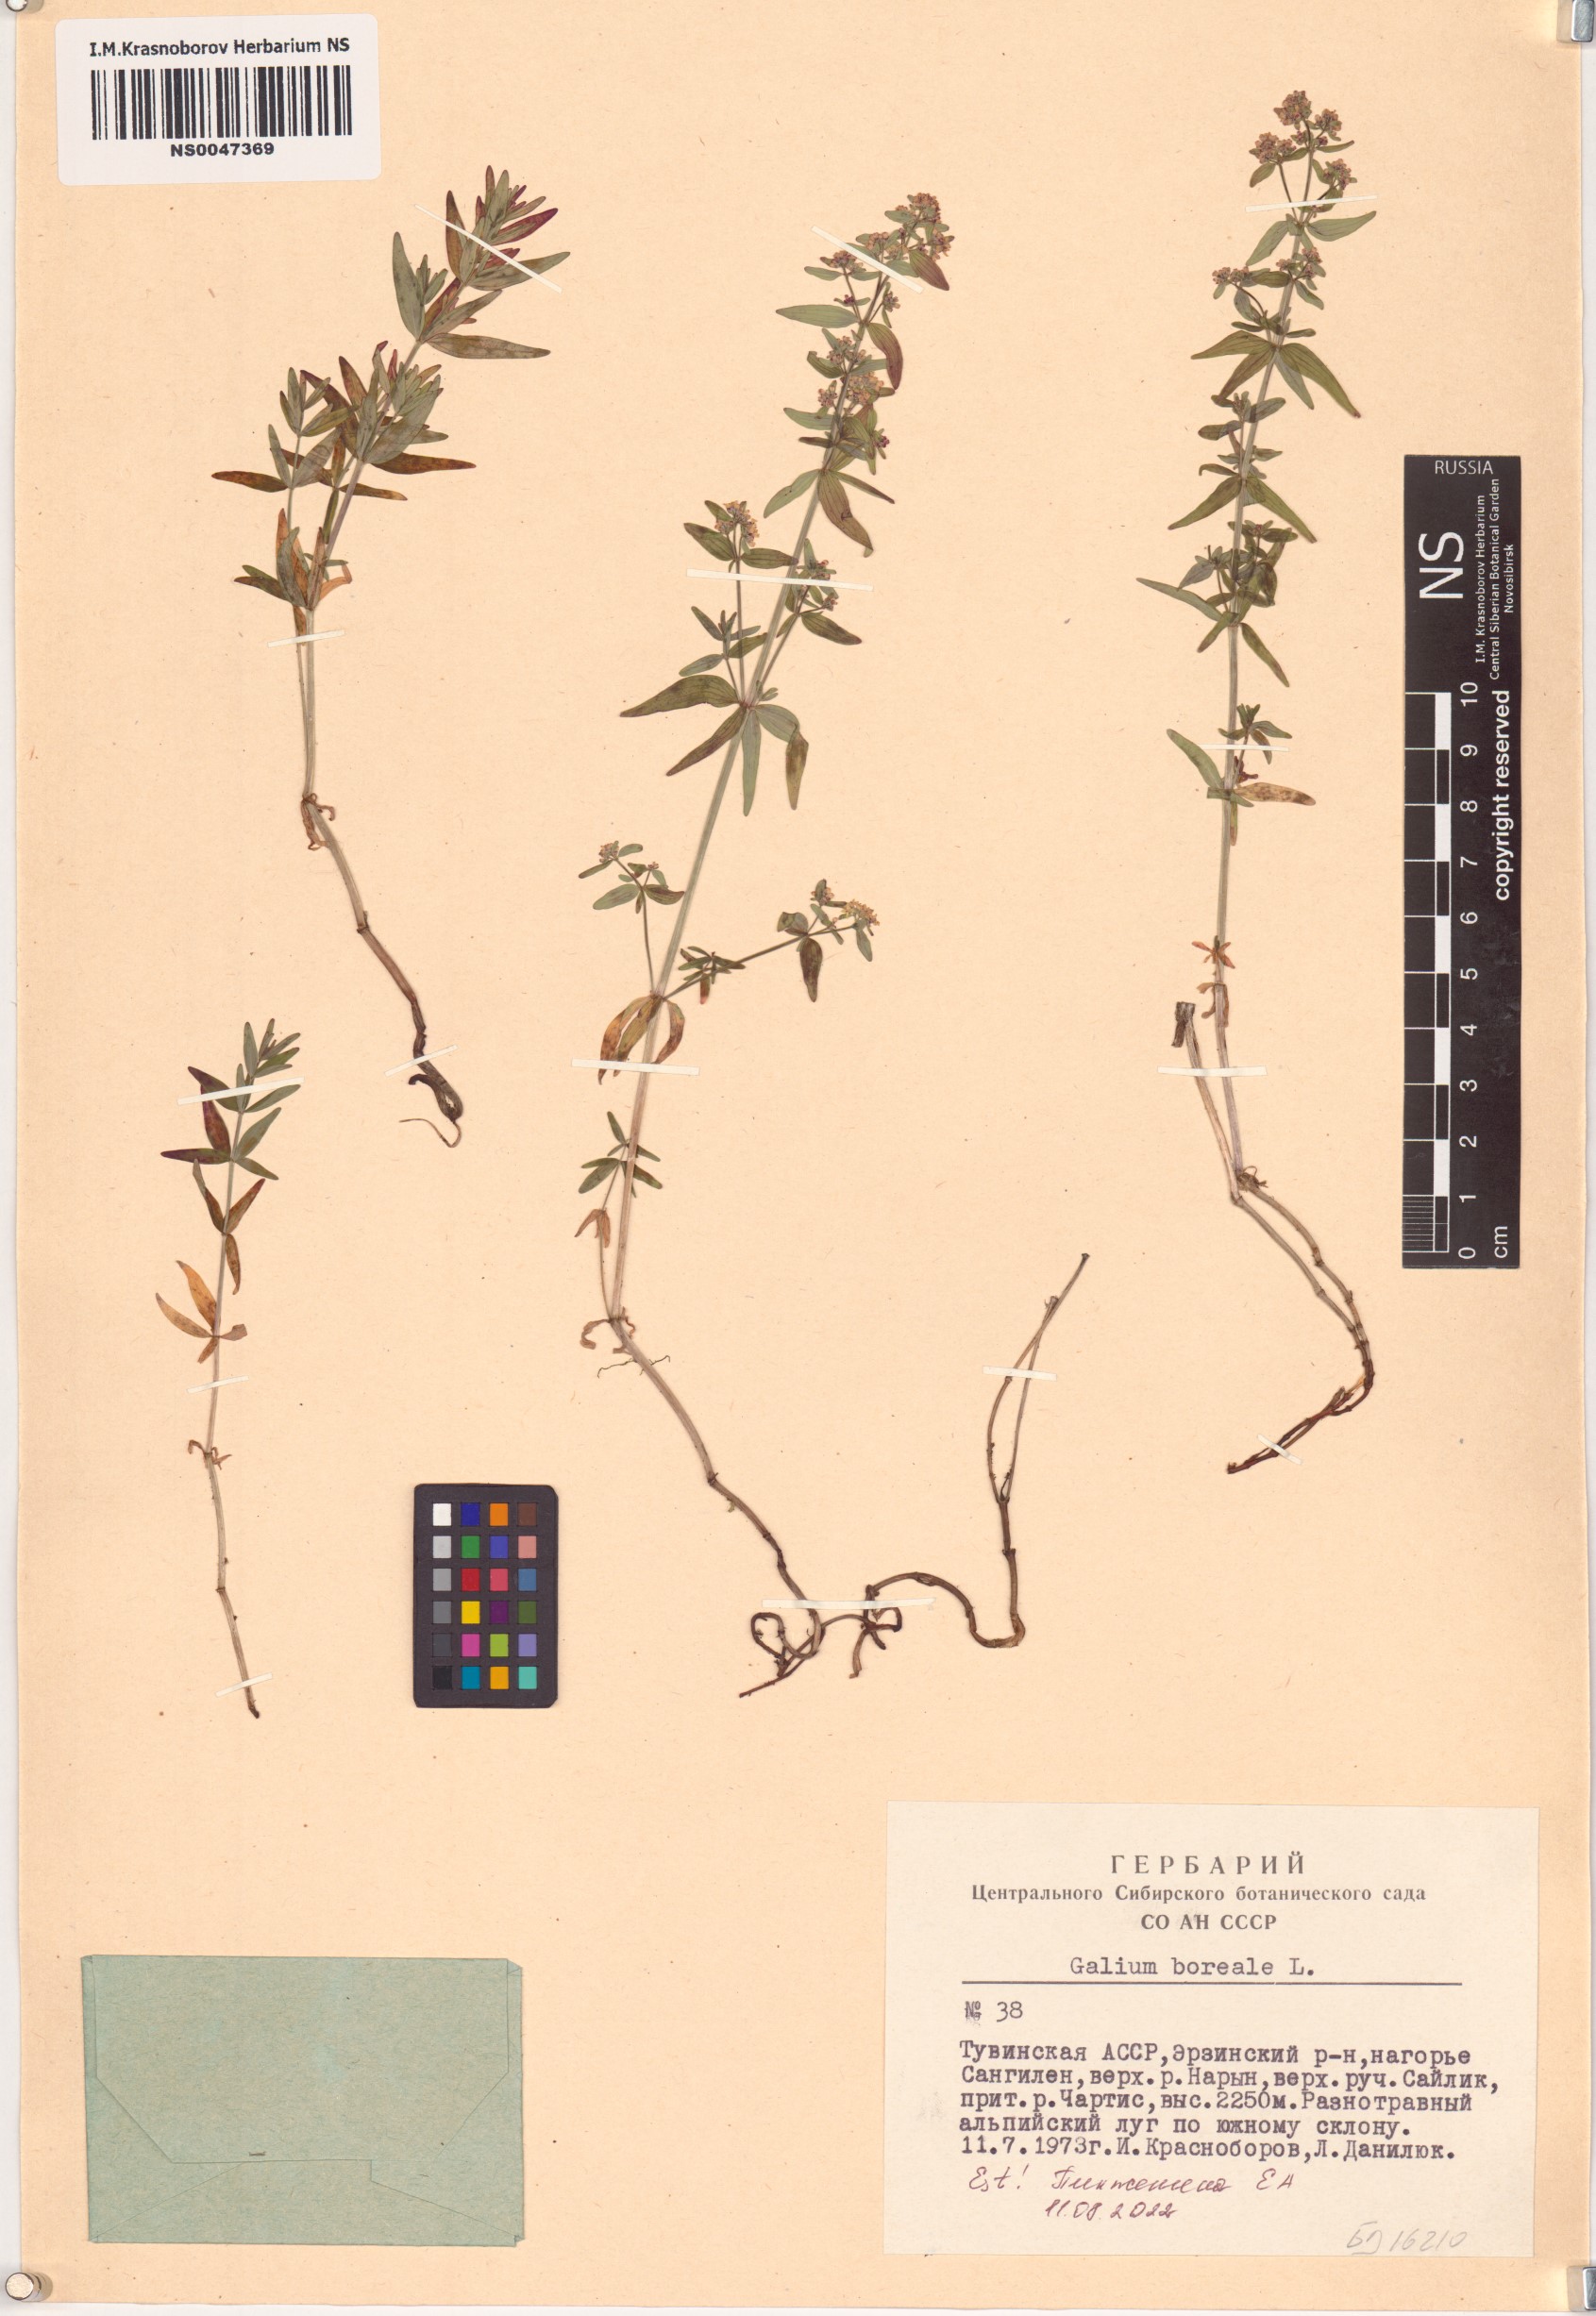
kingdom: Plantae
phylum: Tracheophyta
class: Magnoliopsida
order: Gentianales
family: Rubiaceae
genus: Galium
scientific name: Galium boreale
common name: Northern bedstraw
